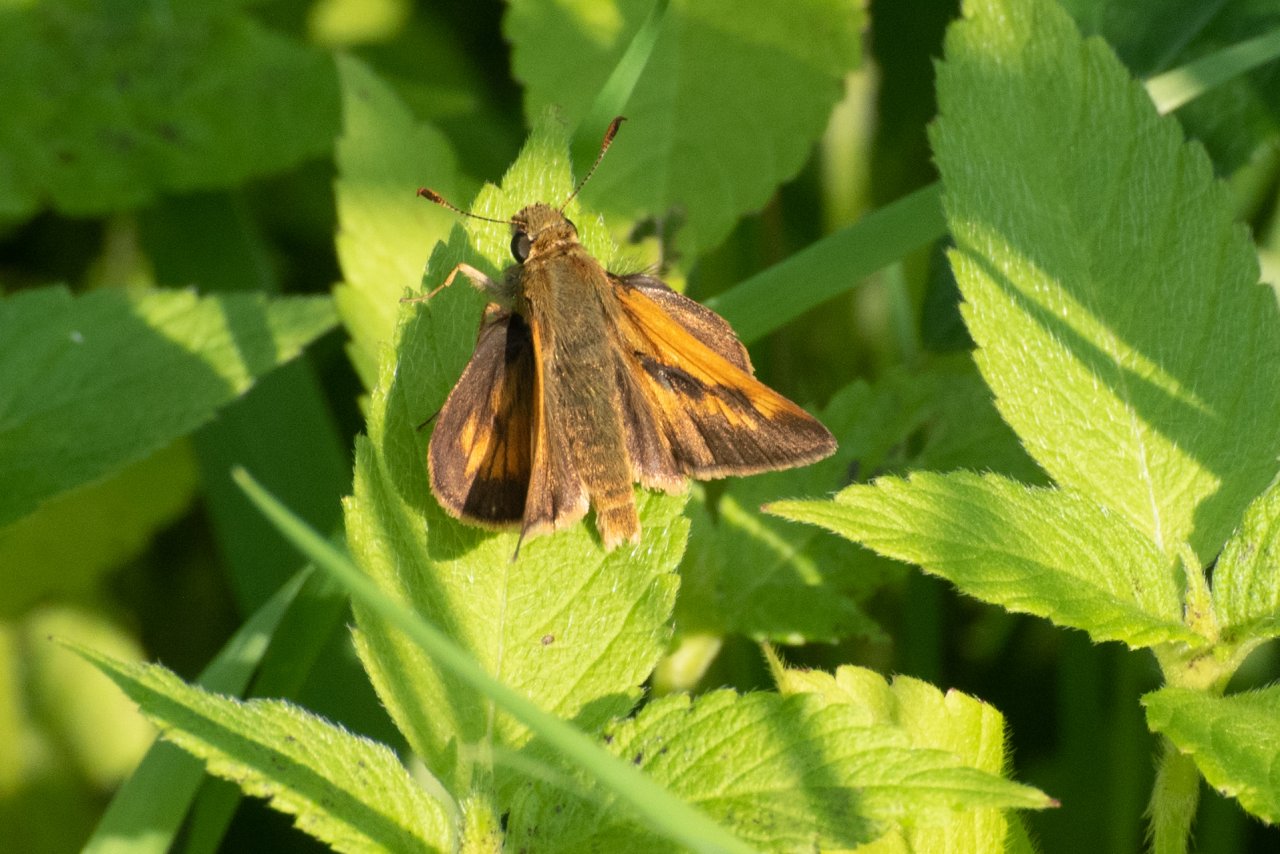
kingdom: Animalia
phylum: Arthropoda
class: Insecta
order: Lepidoptera
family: Hesperiidae
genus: Polites
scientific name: Polites
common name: Long Dash Skipper
